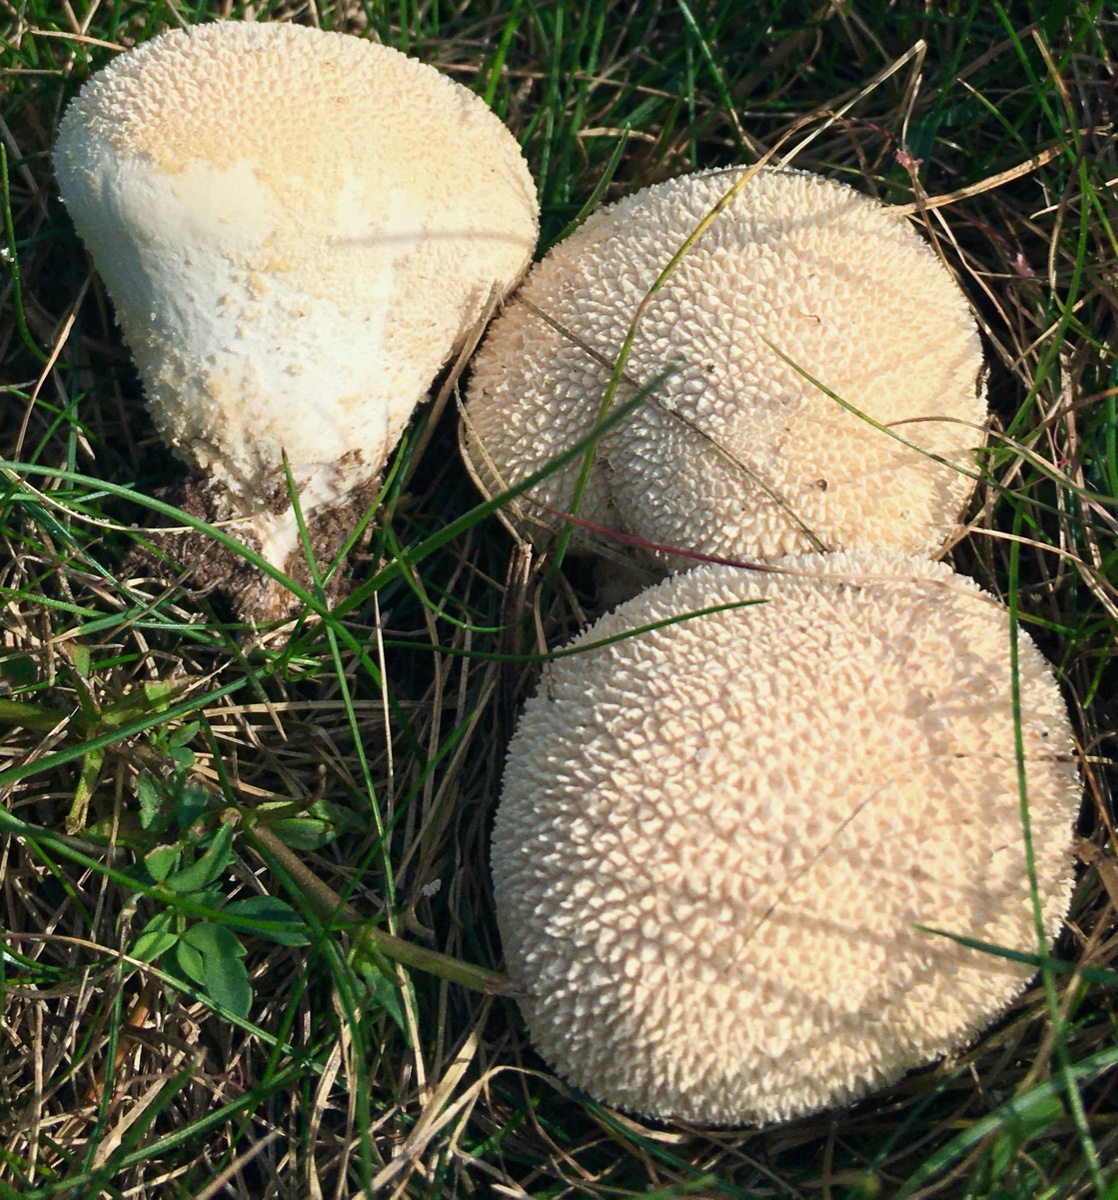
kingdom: Fungi
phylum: Basidiomycota
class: Agaricomycetes
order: Agaricales
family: Lycoperdaceae
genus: Lycoperdon
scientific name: Lycoperdon pratense
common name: flad støvbold
